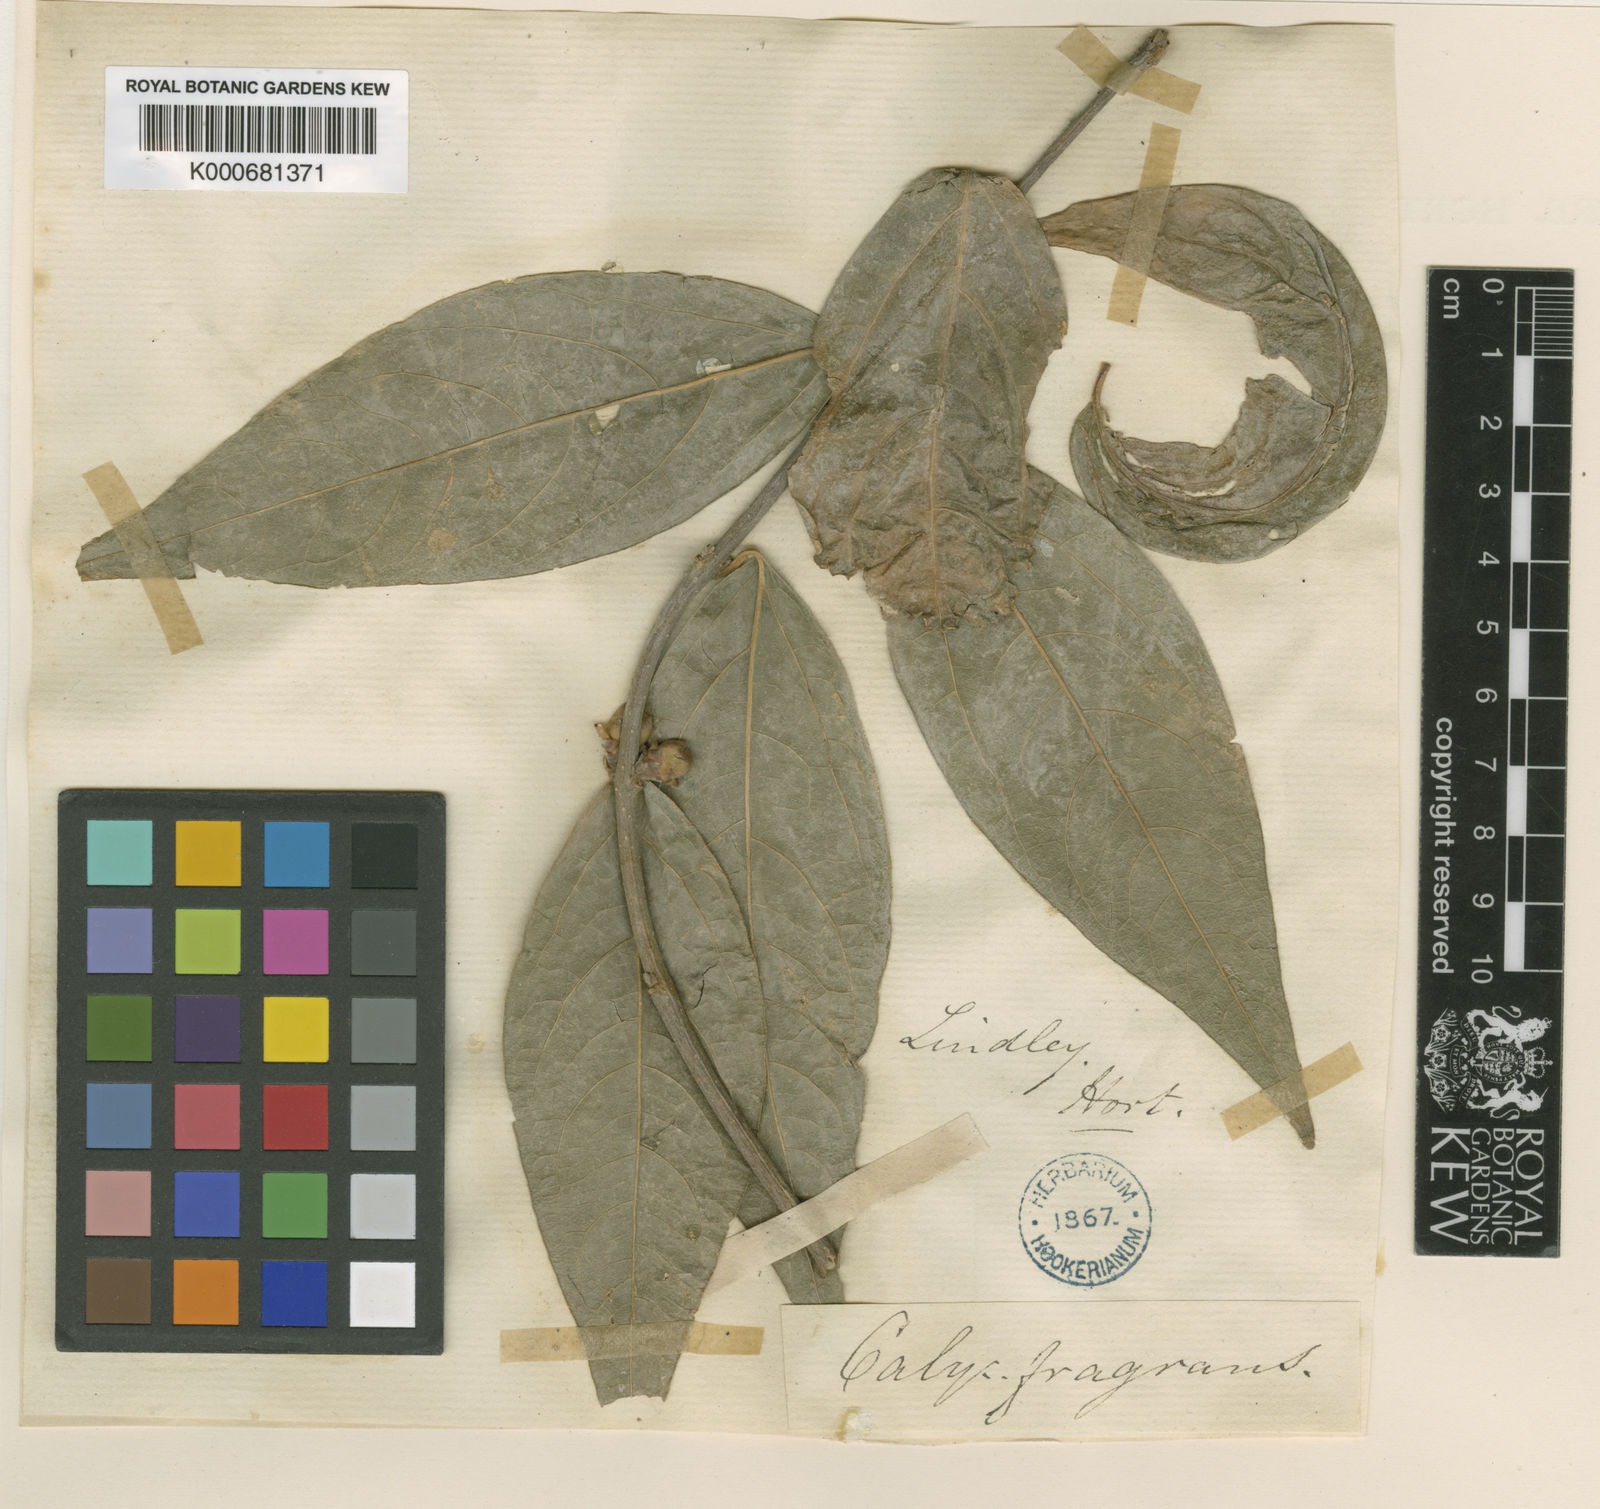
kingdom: Plantae
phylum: Tracheophyta
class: Magnoliopsida
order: Laurales
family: Calycanthaceae
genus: Chimonanthus
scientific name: Chimonanthus praecox
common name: Wintersweet
